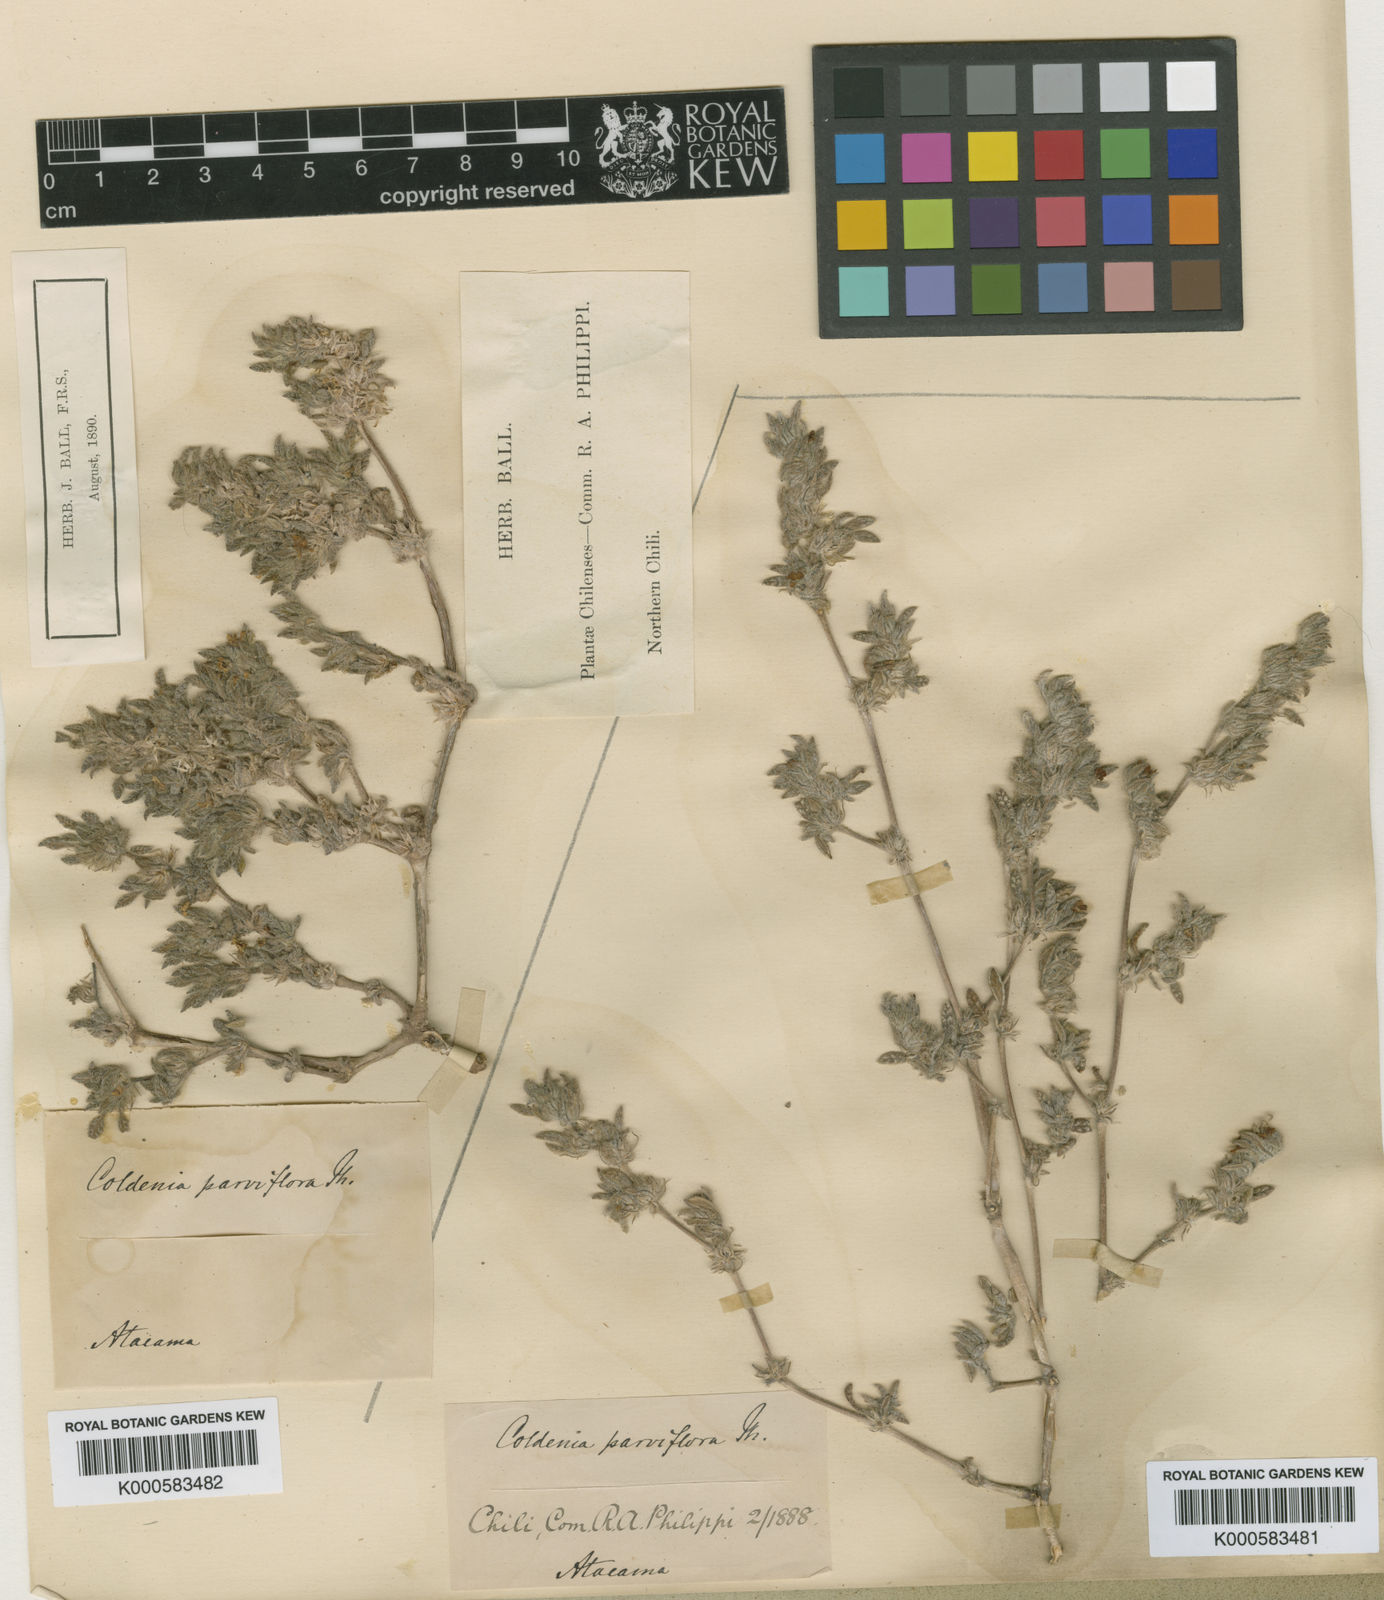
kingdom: Plantae
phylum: Tracheophyta
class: Magnoliopsida
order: Boraginales
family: Ehretiaceae
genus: Tiquilia
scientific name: Tiquilia nuttallii
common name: Rosette tiquilia
